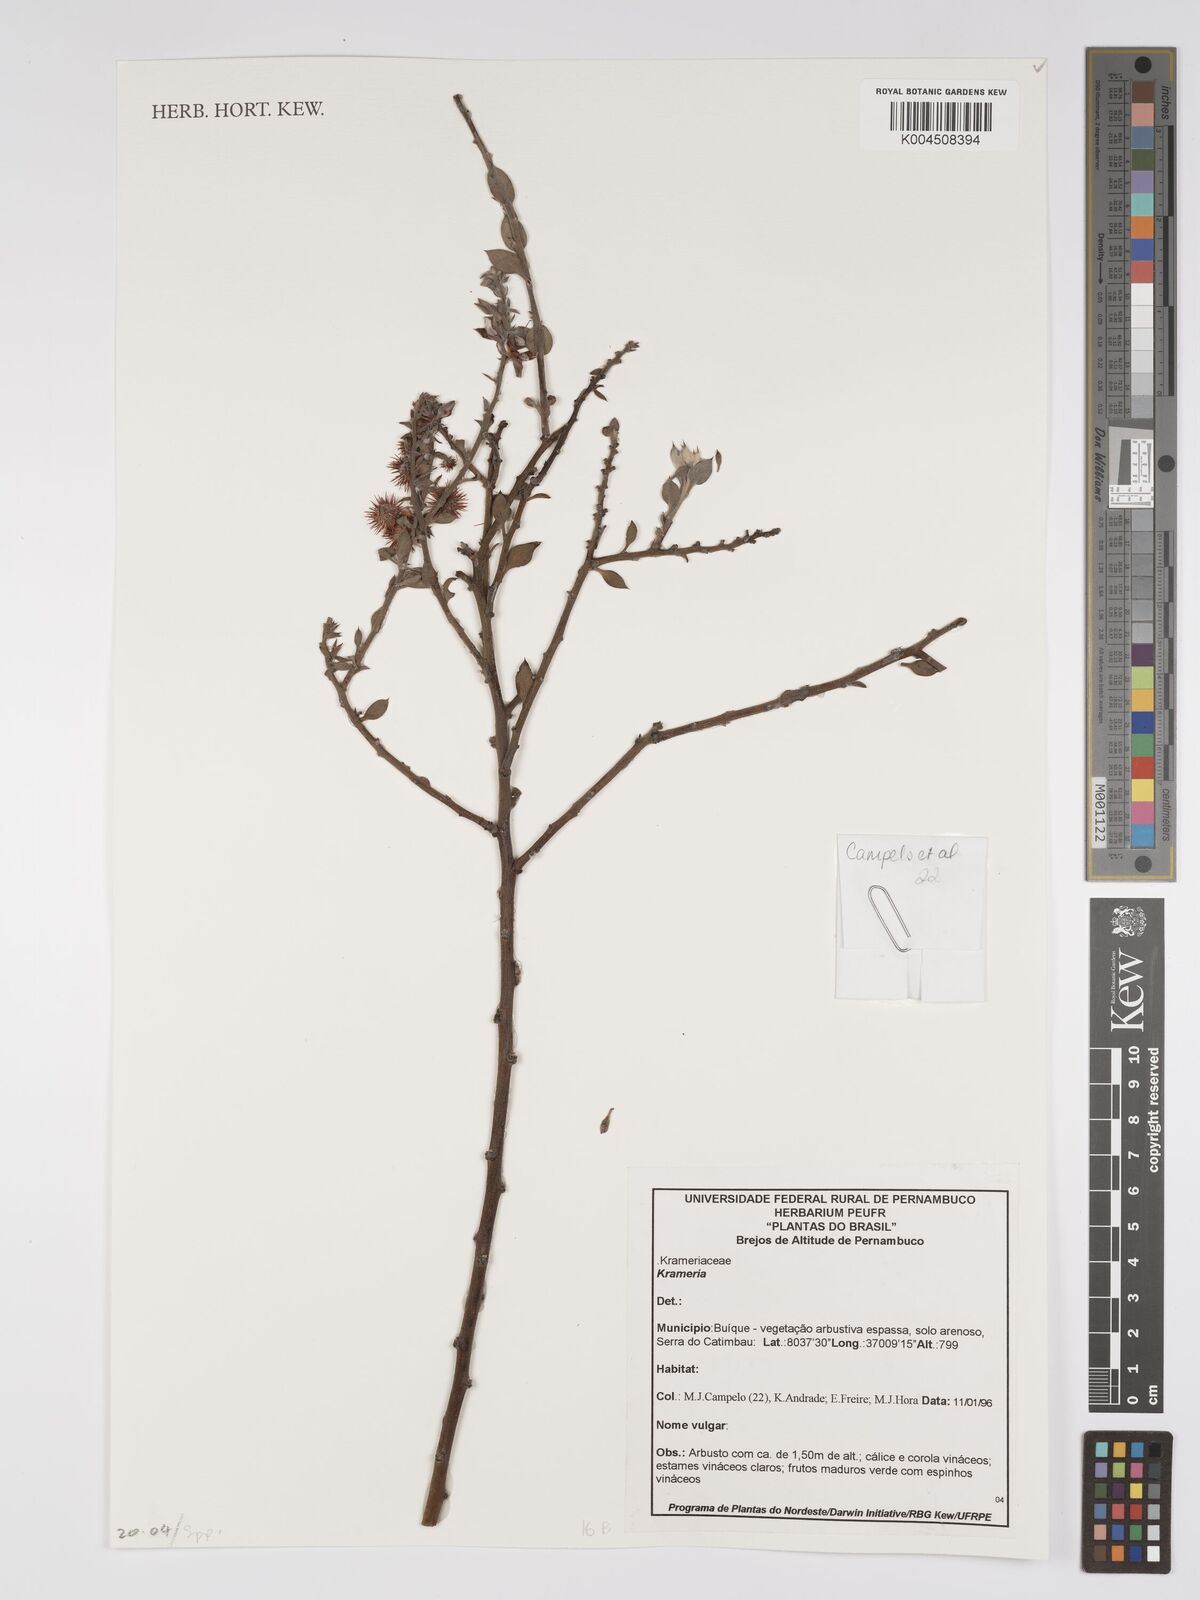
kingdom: Plantae
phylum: Tracheophyta
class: Magnoliopsida
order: Zygophyllales
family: Krameriaceae
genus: Krameria
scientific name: Krameria
